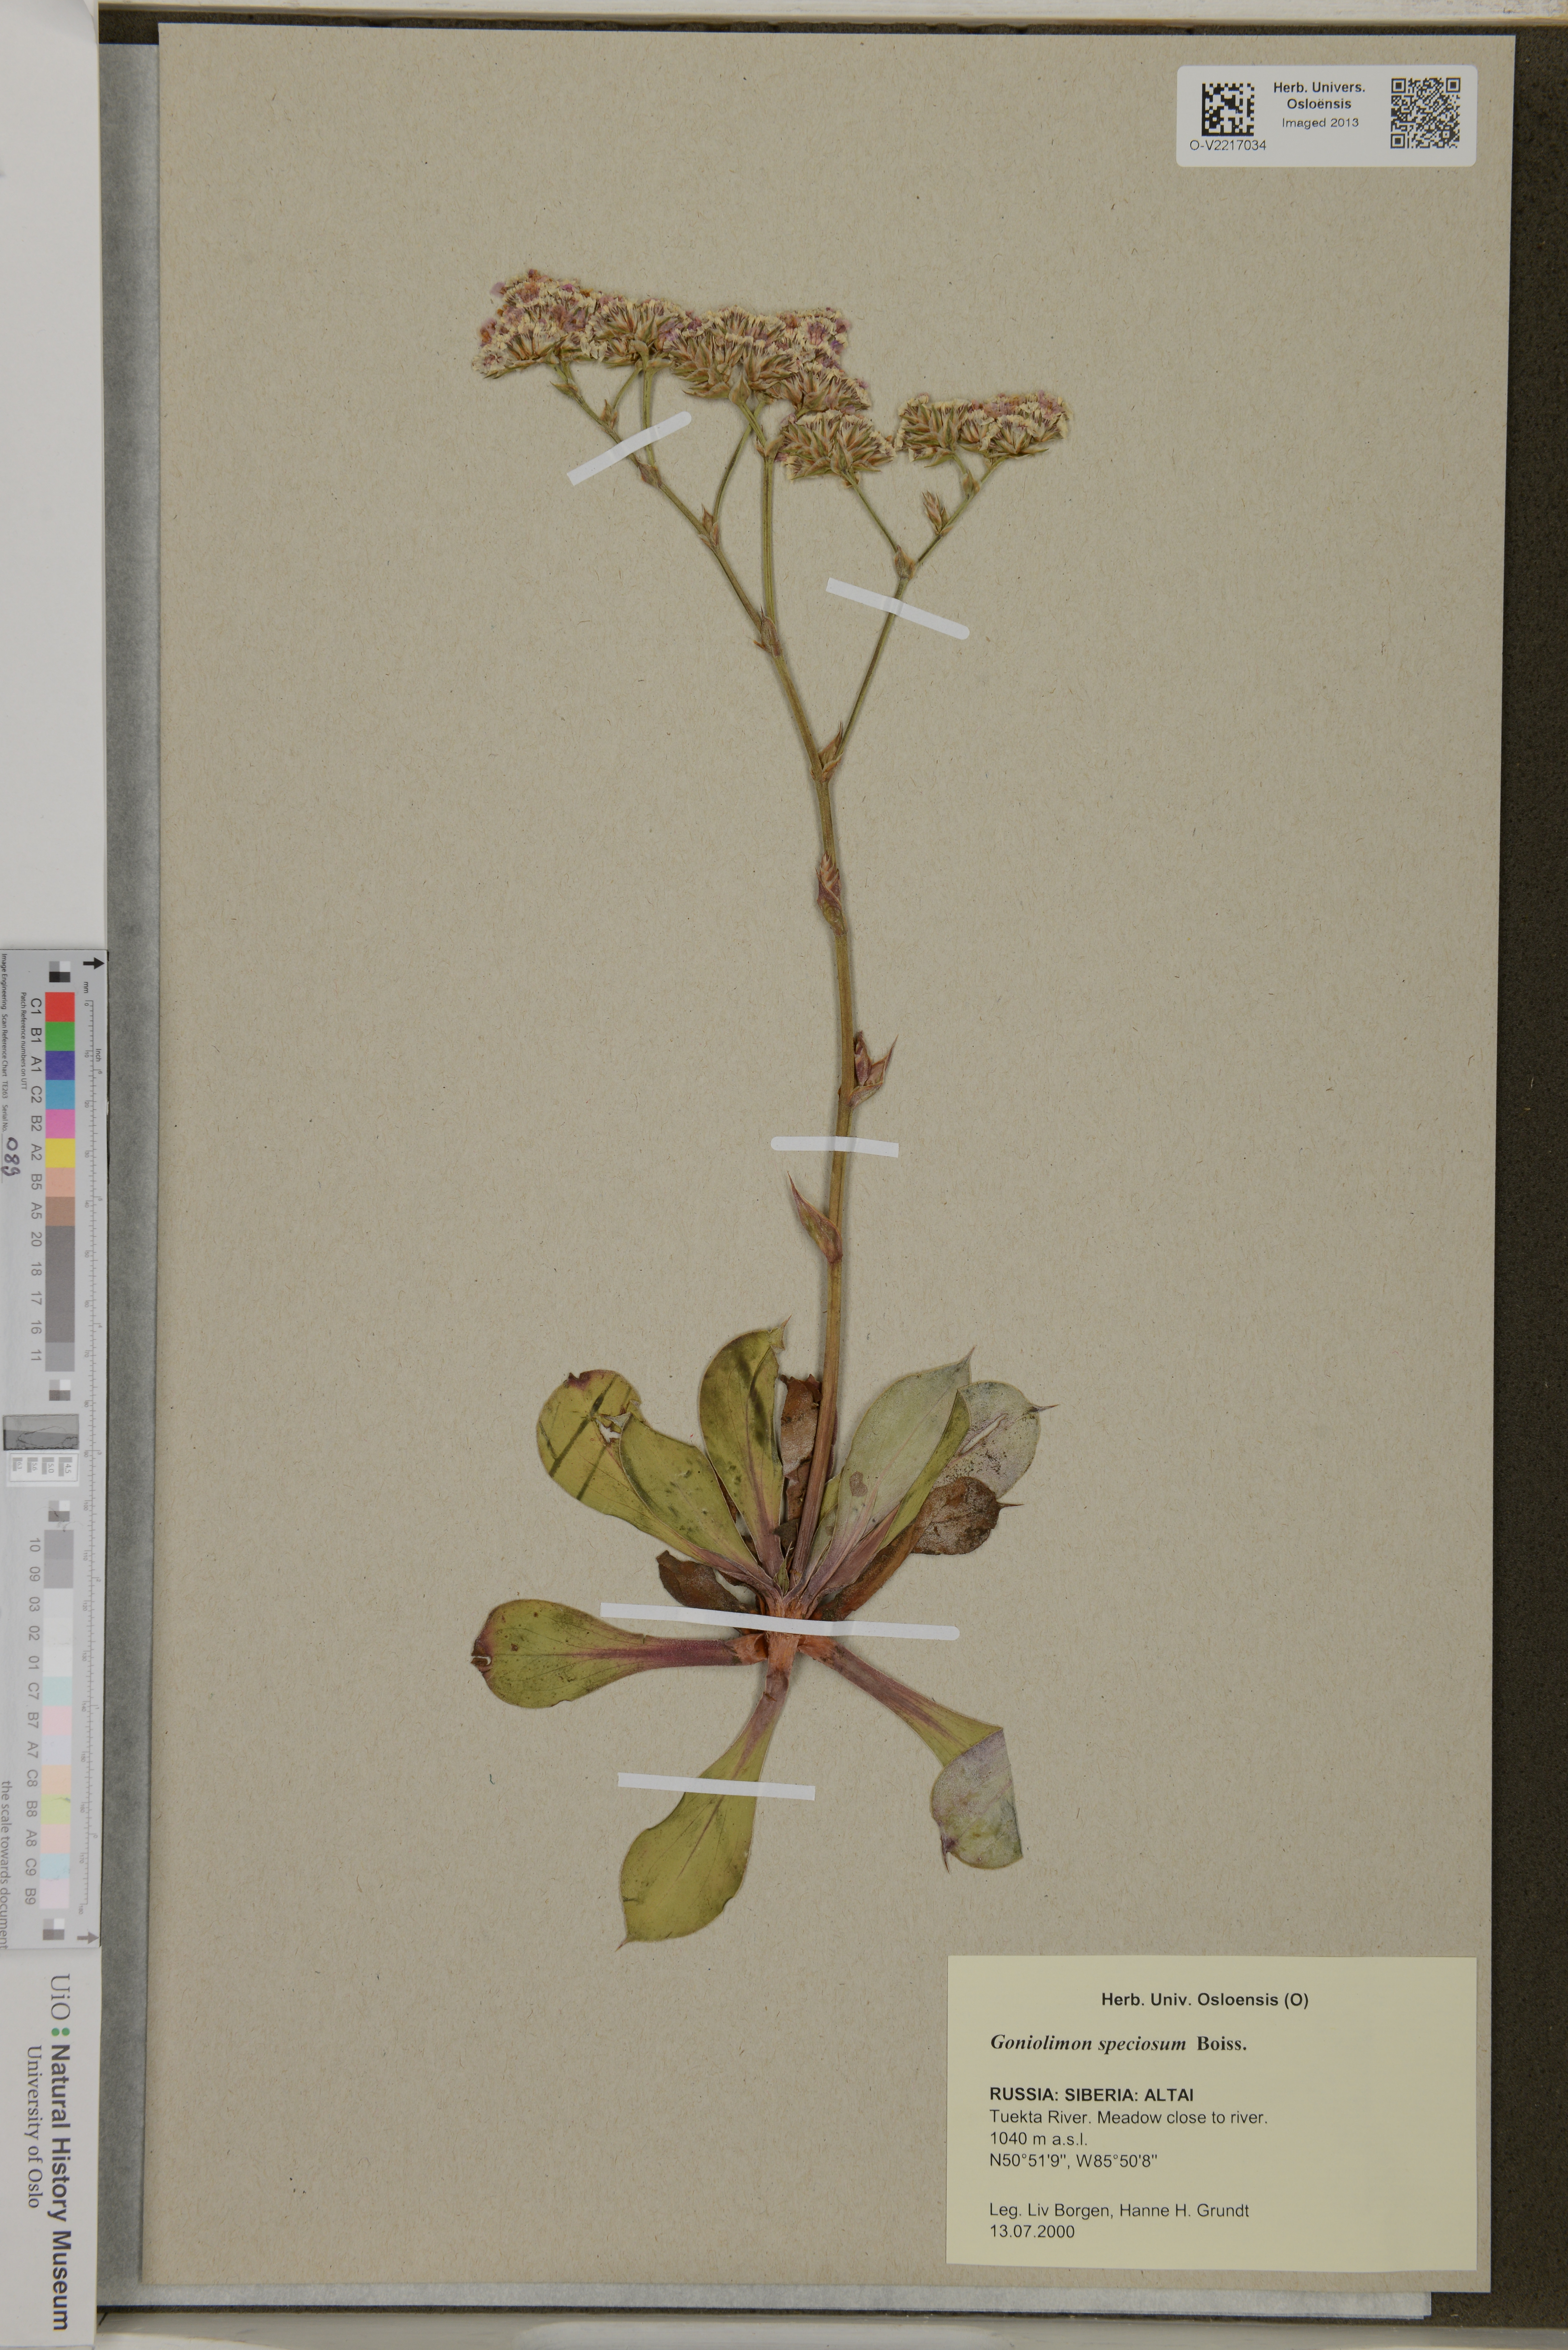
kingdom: Plantae
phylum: Tracheophyta
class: Magnoliopsida
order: Caryophyllales
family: Plumbaginaceae
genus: Goniolimon
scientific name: Goniolimon speciosum
